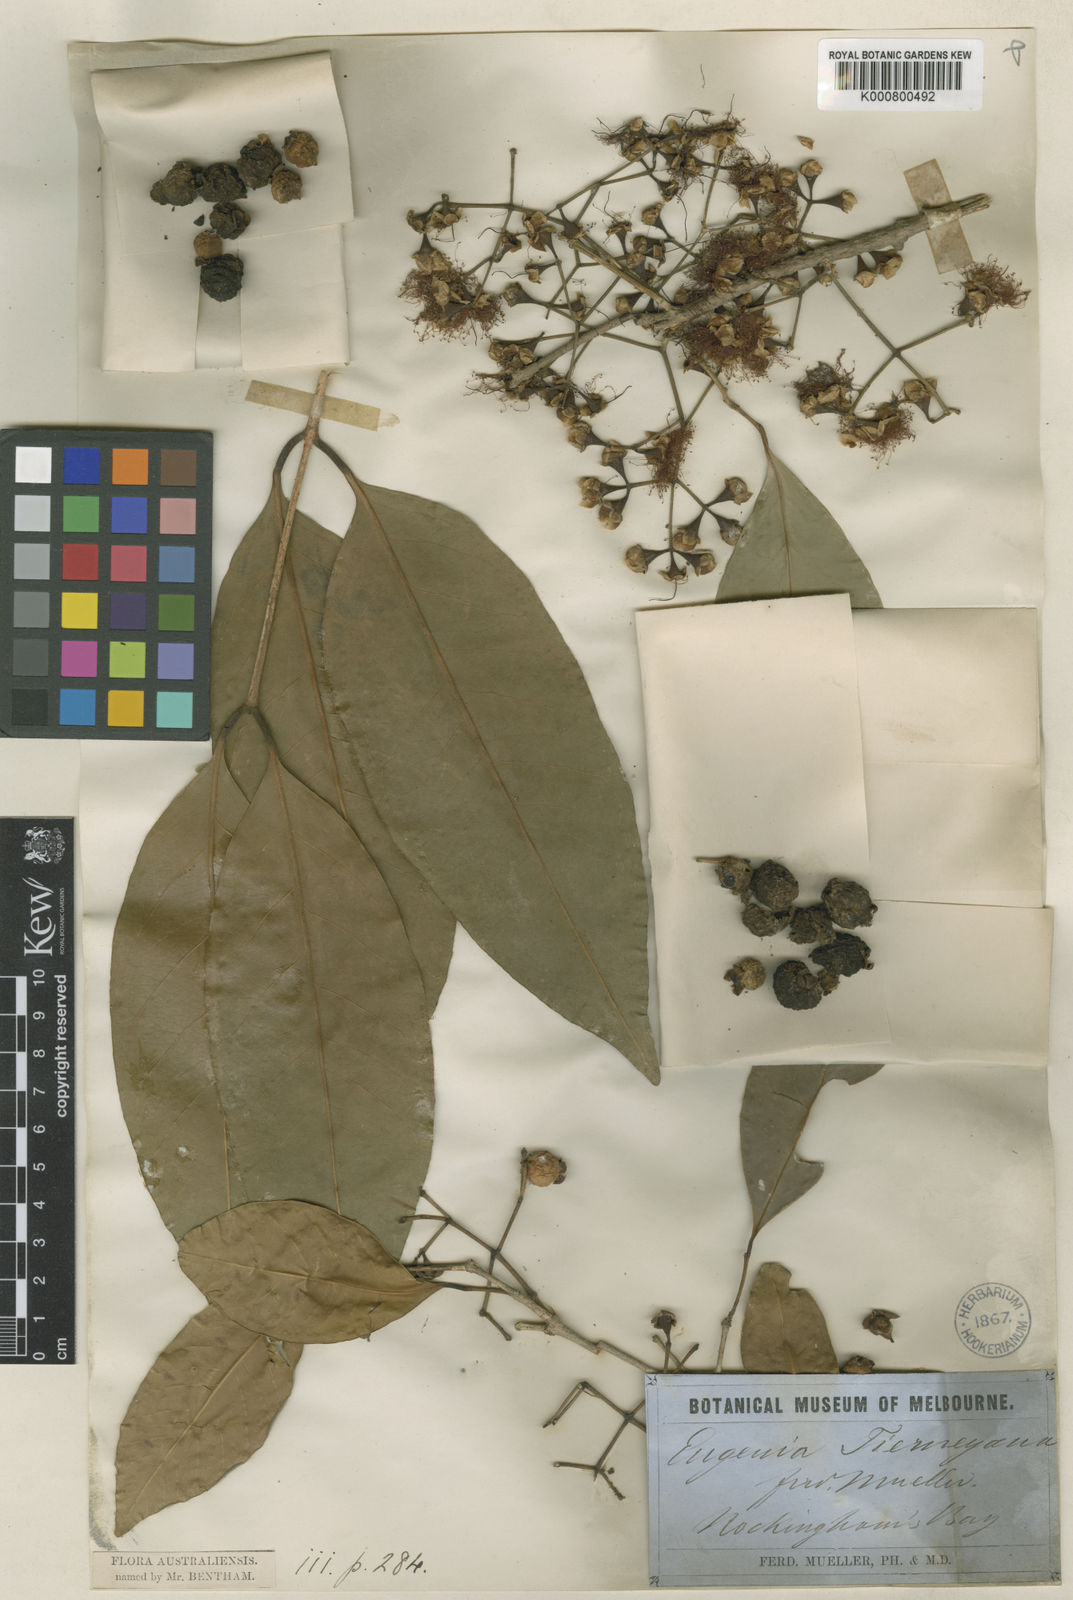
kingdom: Plantae
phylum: Tracheophyta
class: Magnoliopsida
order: Myrtales
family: Myrtaceae
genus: Syzygium
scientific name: Syzygium tierneyanum
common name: River-cherry
